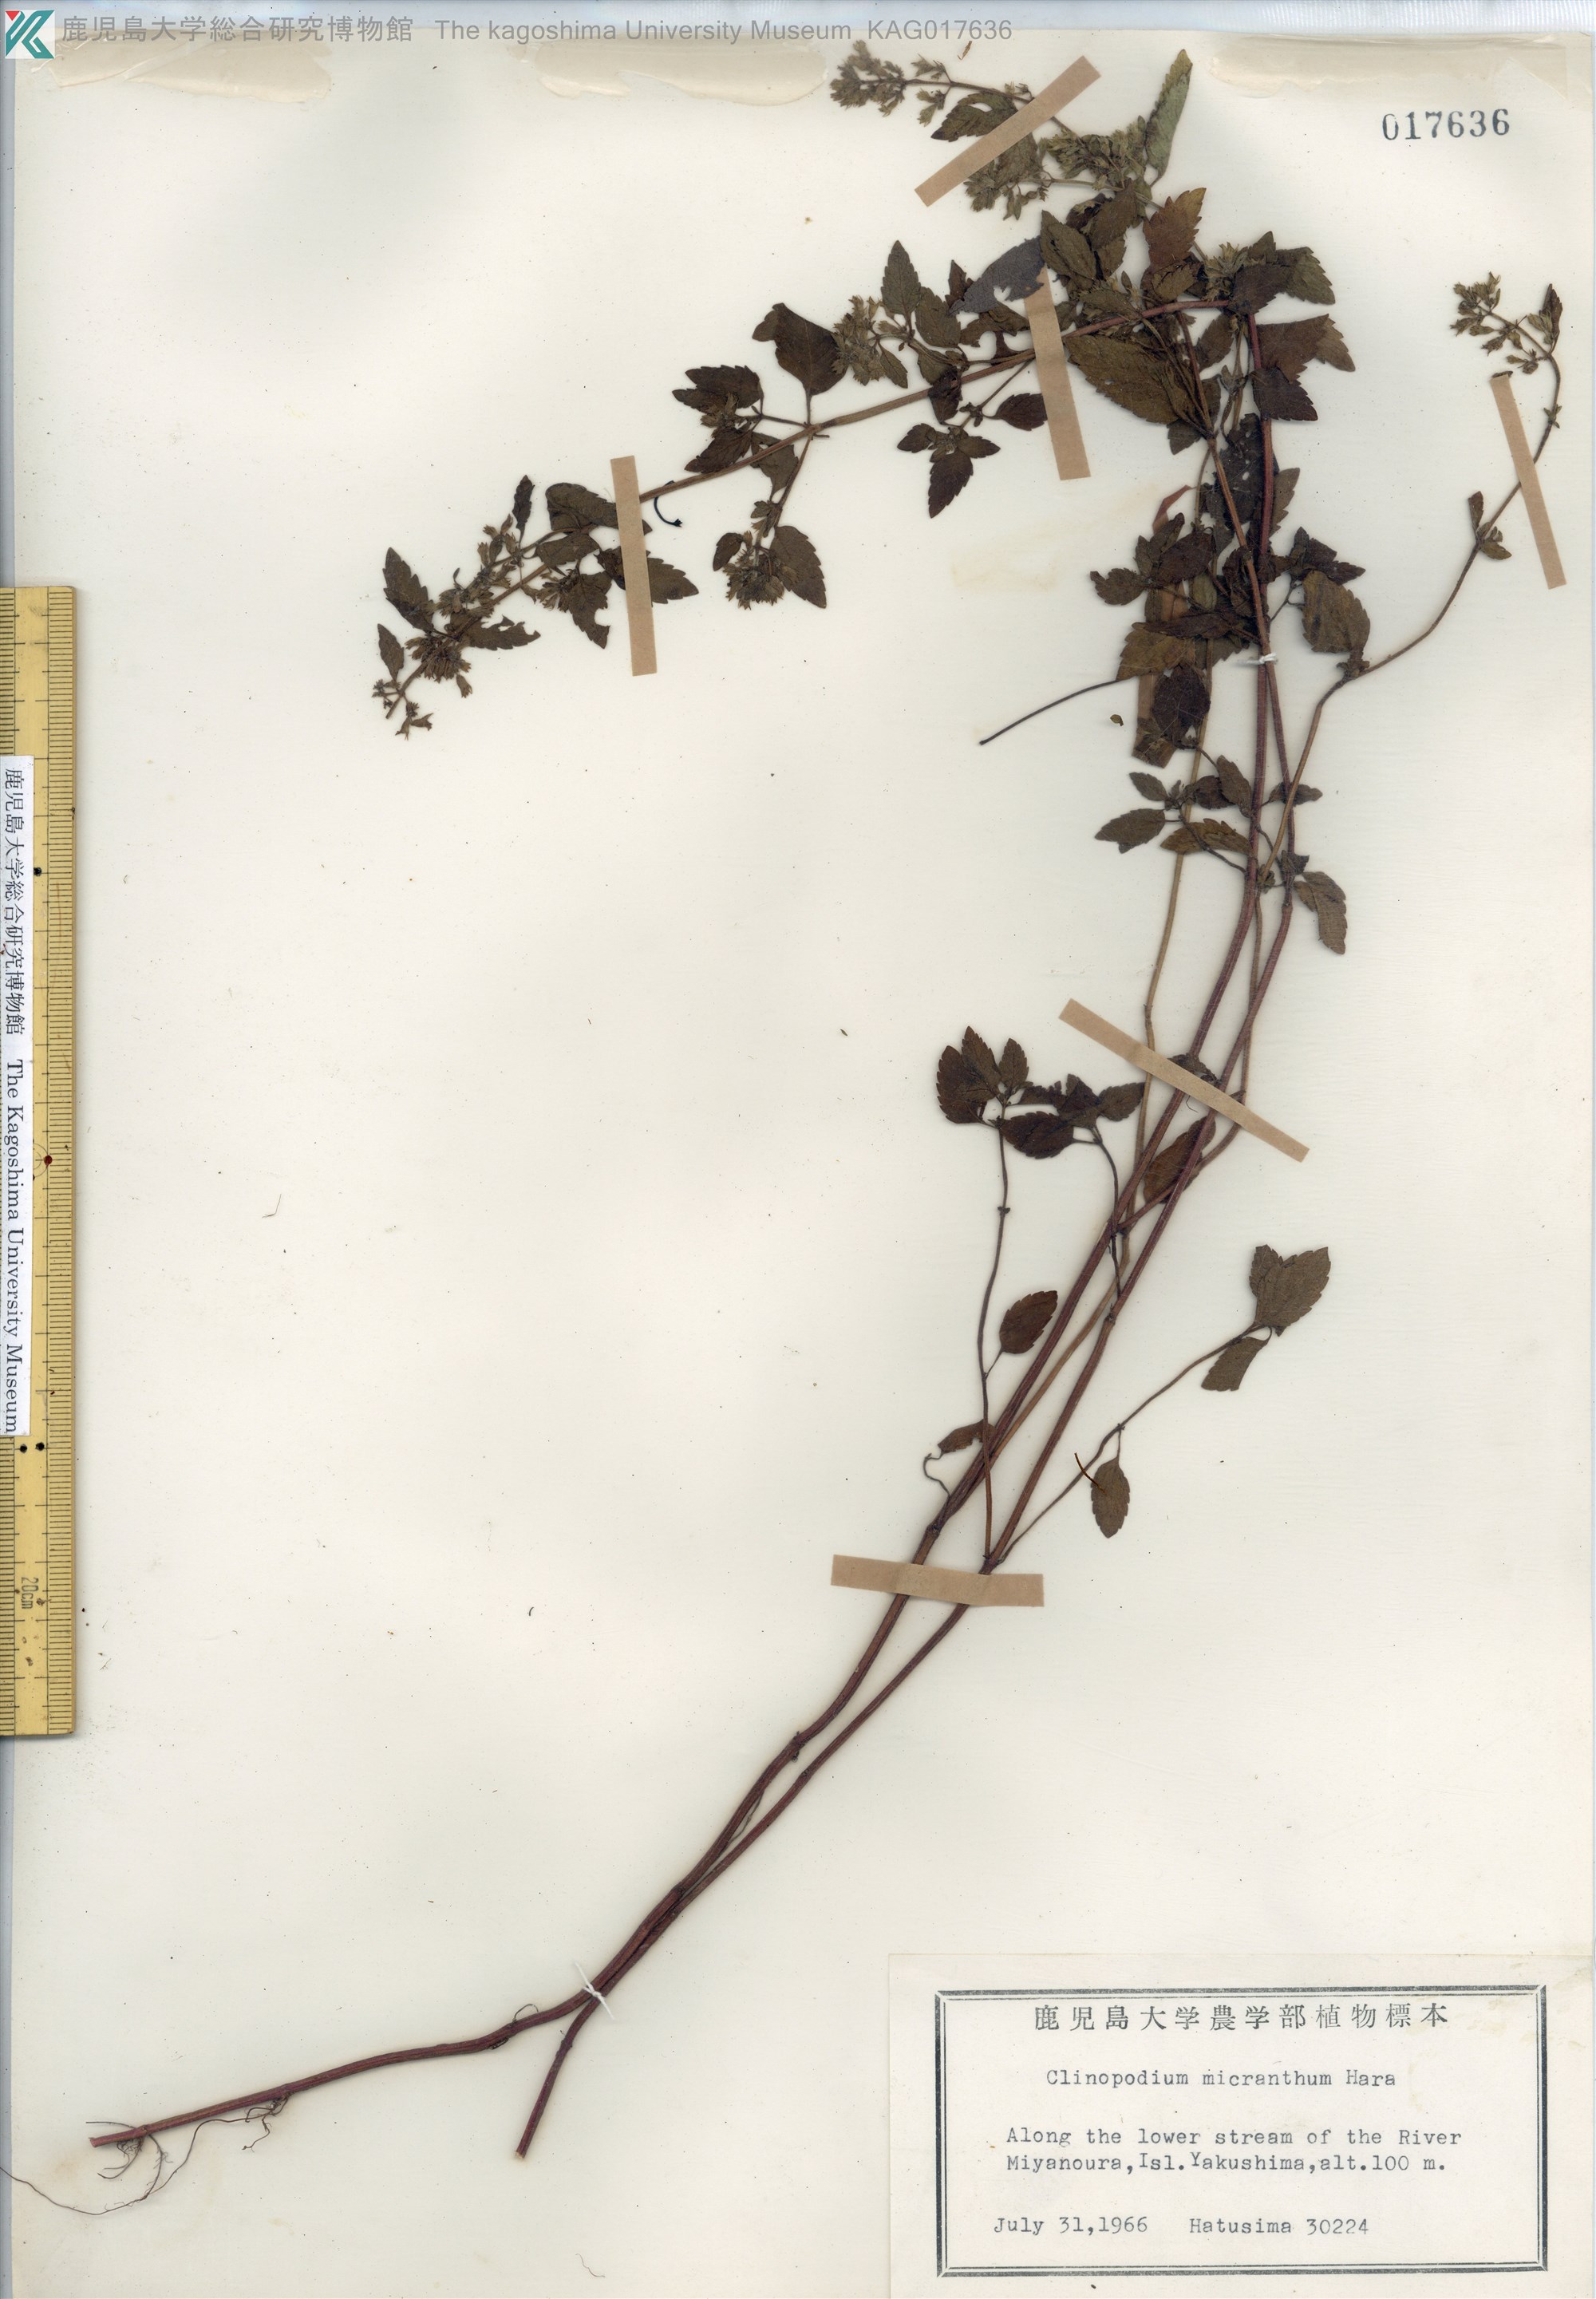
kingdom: Plantae
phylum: Tracheophyta
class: Magnoliopsida
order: Lamiales
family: Lamiaceae
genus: Clinopodium
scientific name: Clinopodium micranthum
